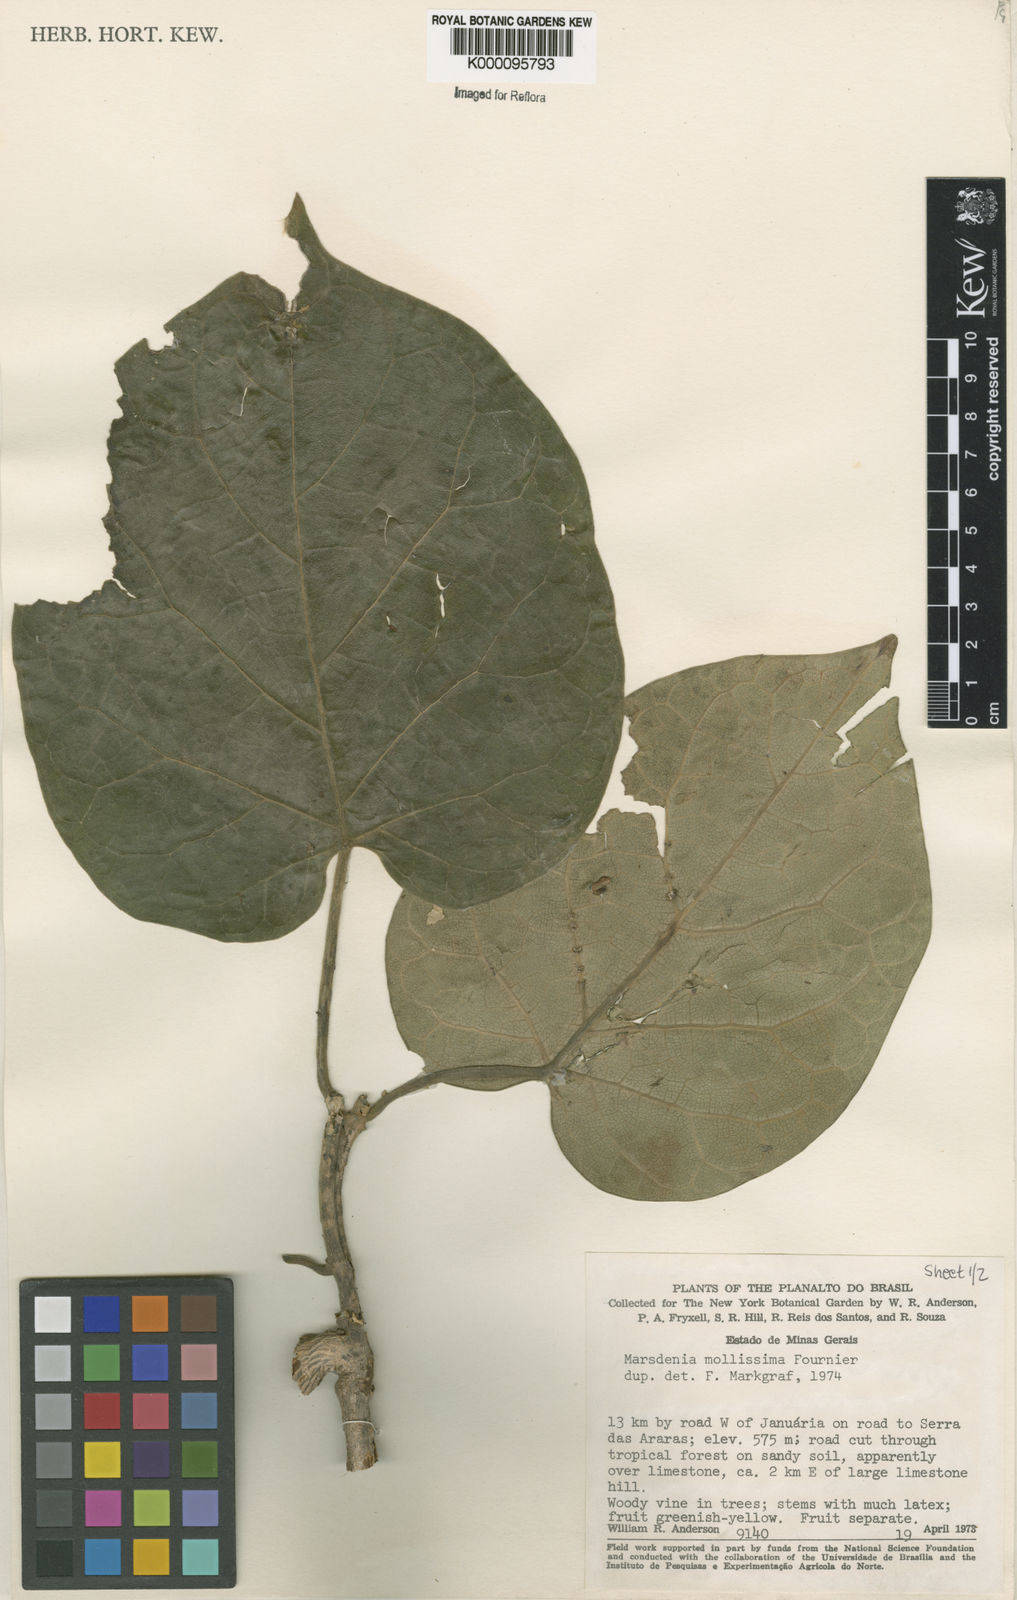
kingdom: Plantae
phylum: Tracheophyta
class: Magnoliopsida
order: Gentianales
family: Apocynaceae
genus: Ruehssia
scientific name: Ruehssia altissima
